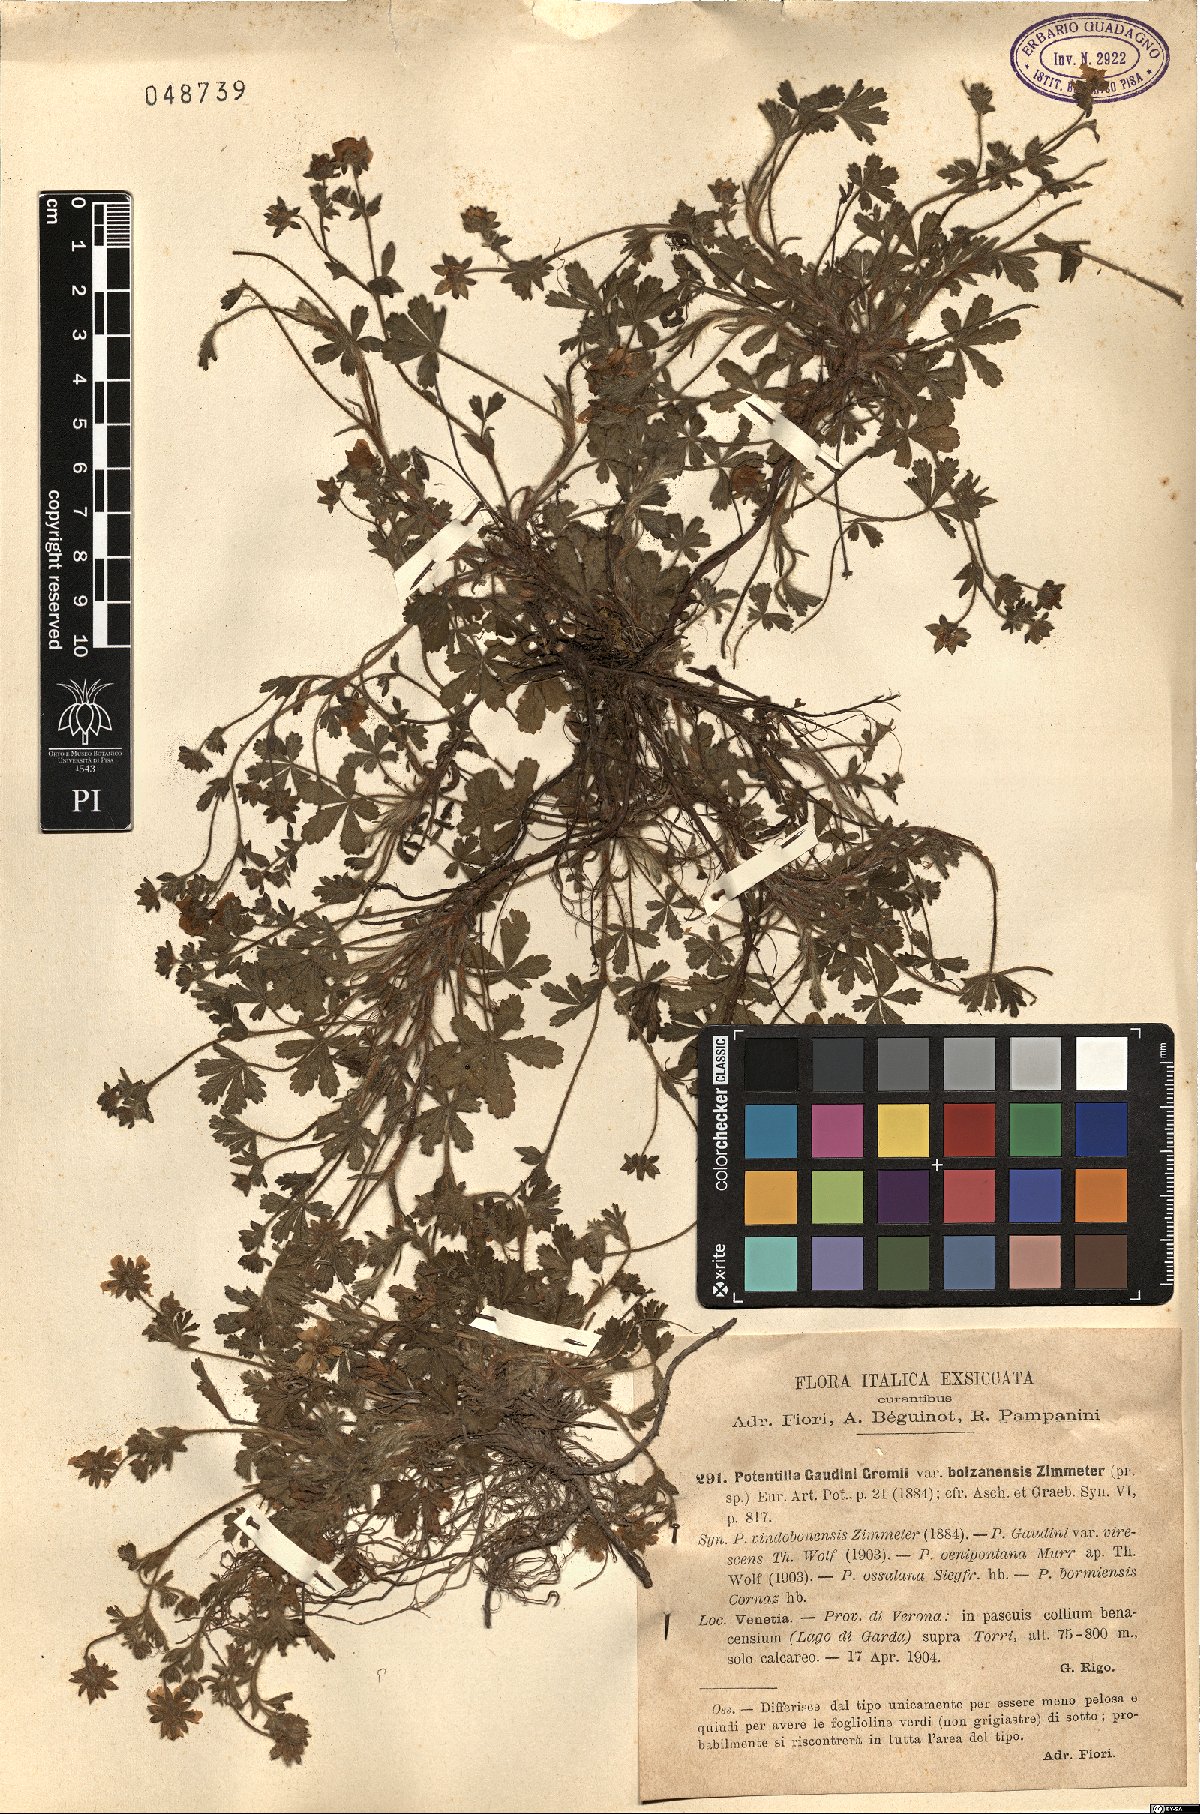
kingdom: Plantae
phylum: Tracheophyta
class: Magnoliopsida
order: Rosales
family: Rosaceae
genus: Potentilla
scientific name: Potentilla pusilla
